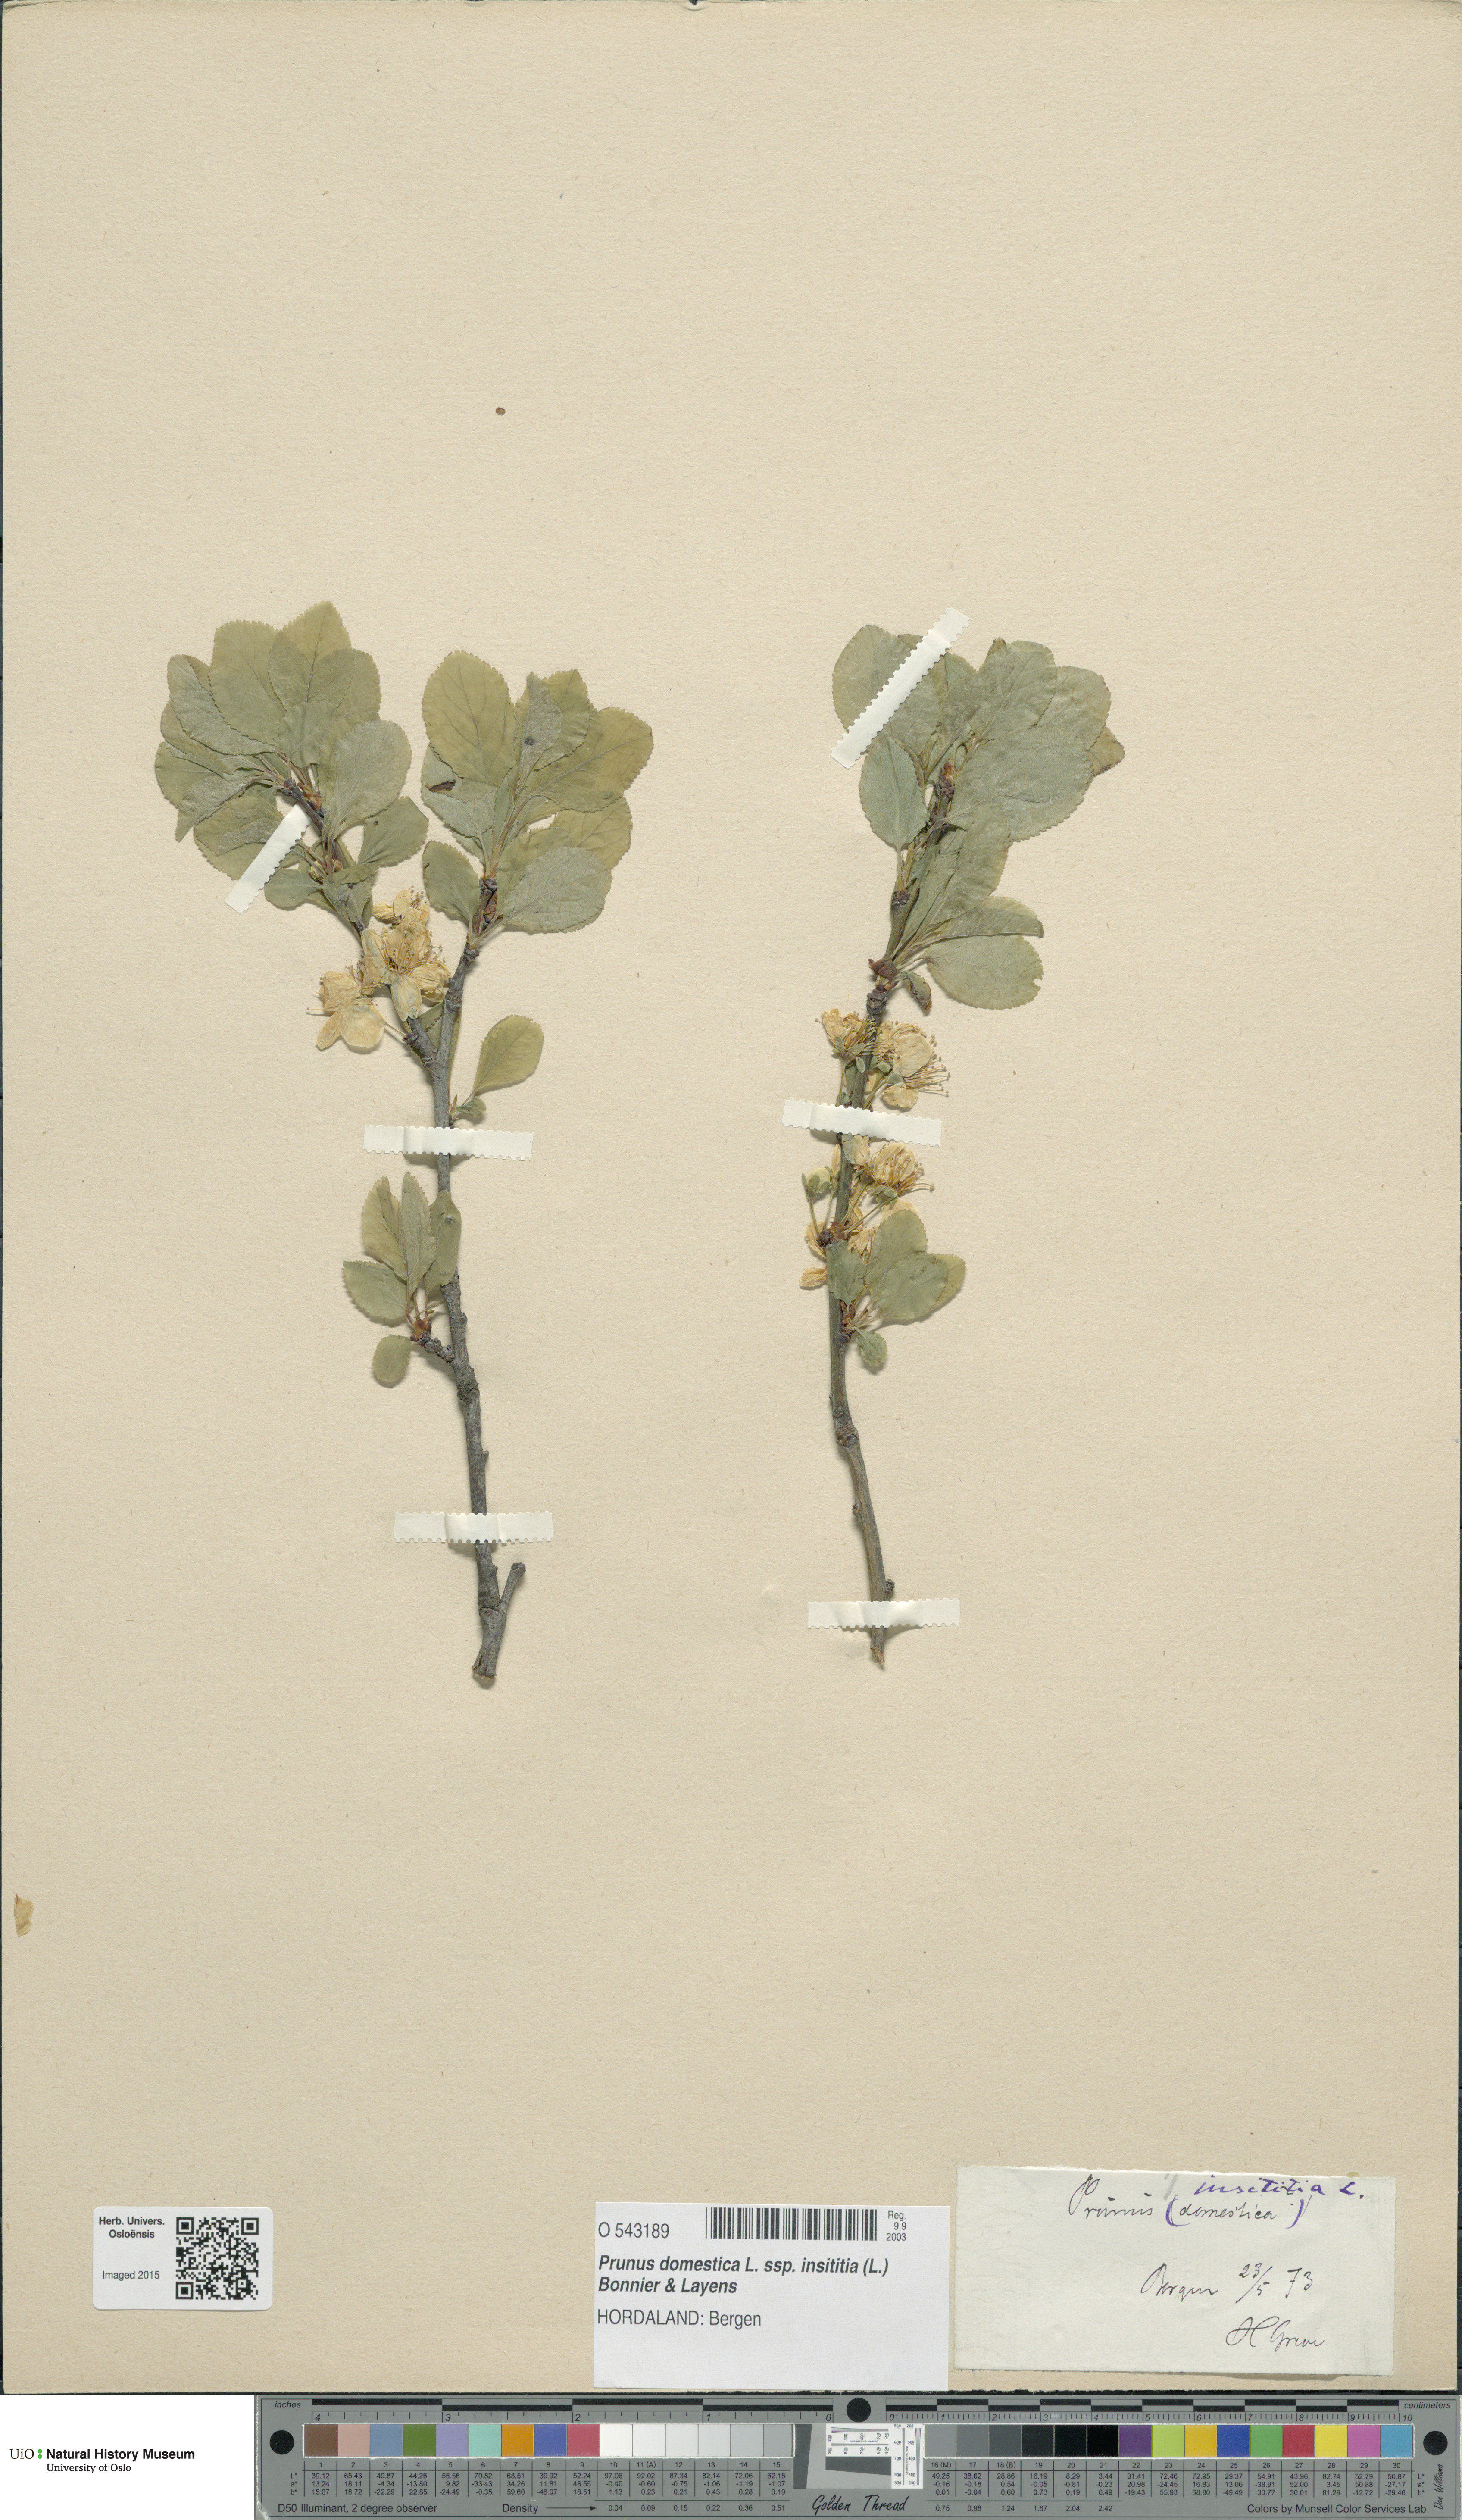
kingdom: Plantae
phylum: Tracheophyta
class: Magnoliopsida
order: Rosales
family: Rosaceae
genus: Prunus
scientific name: Prunus domestica
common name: Wild plum
